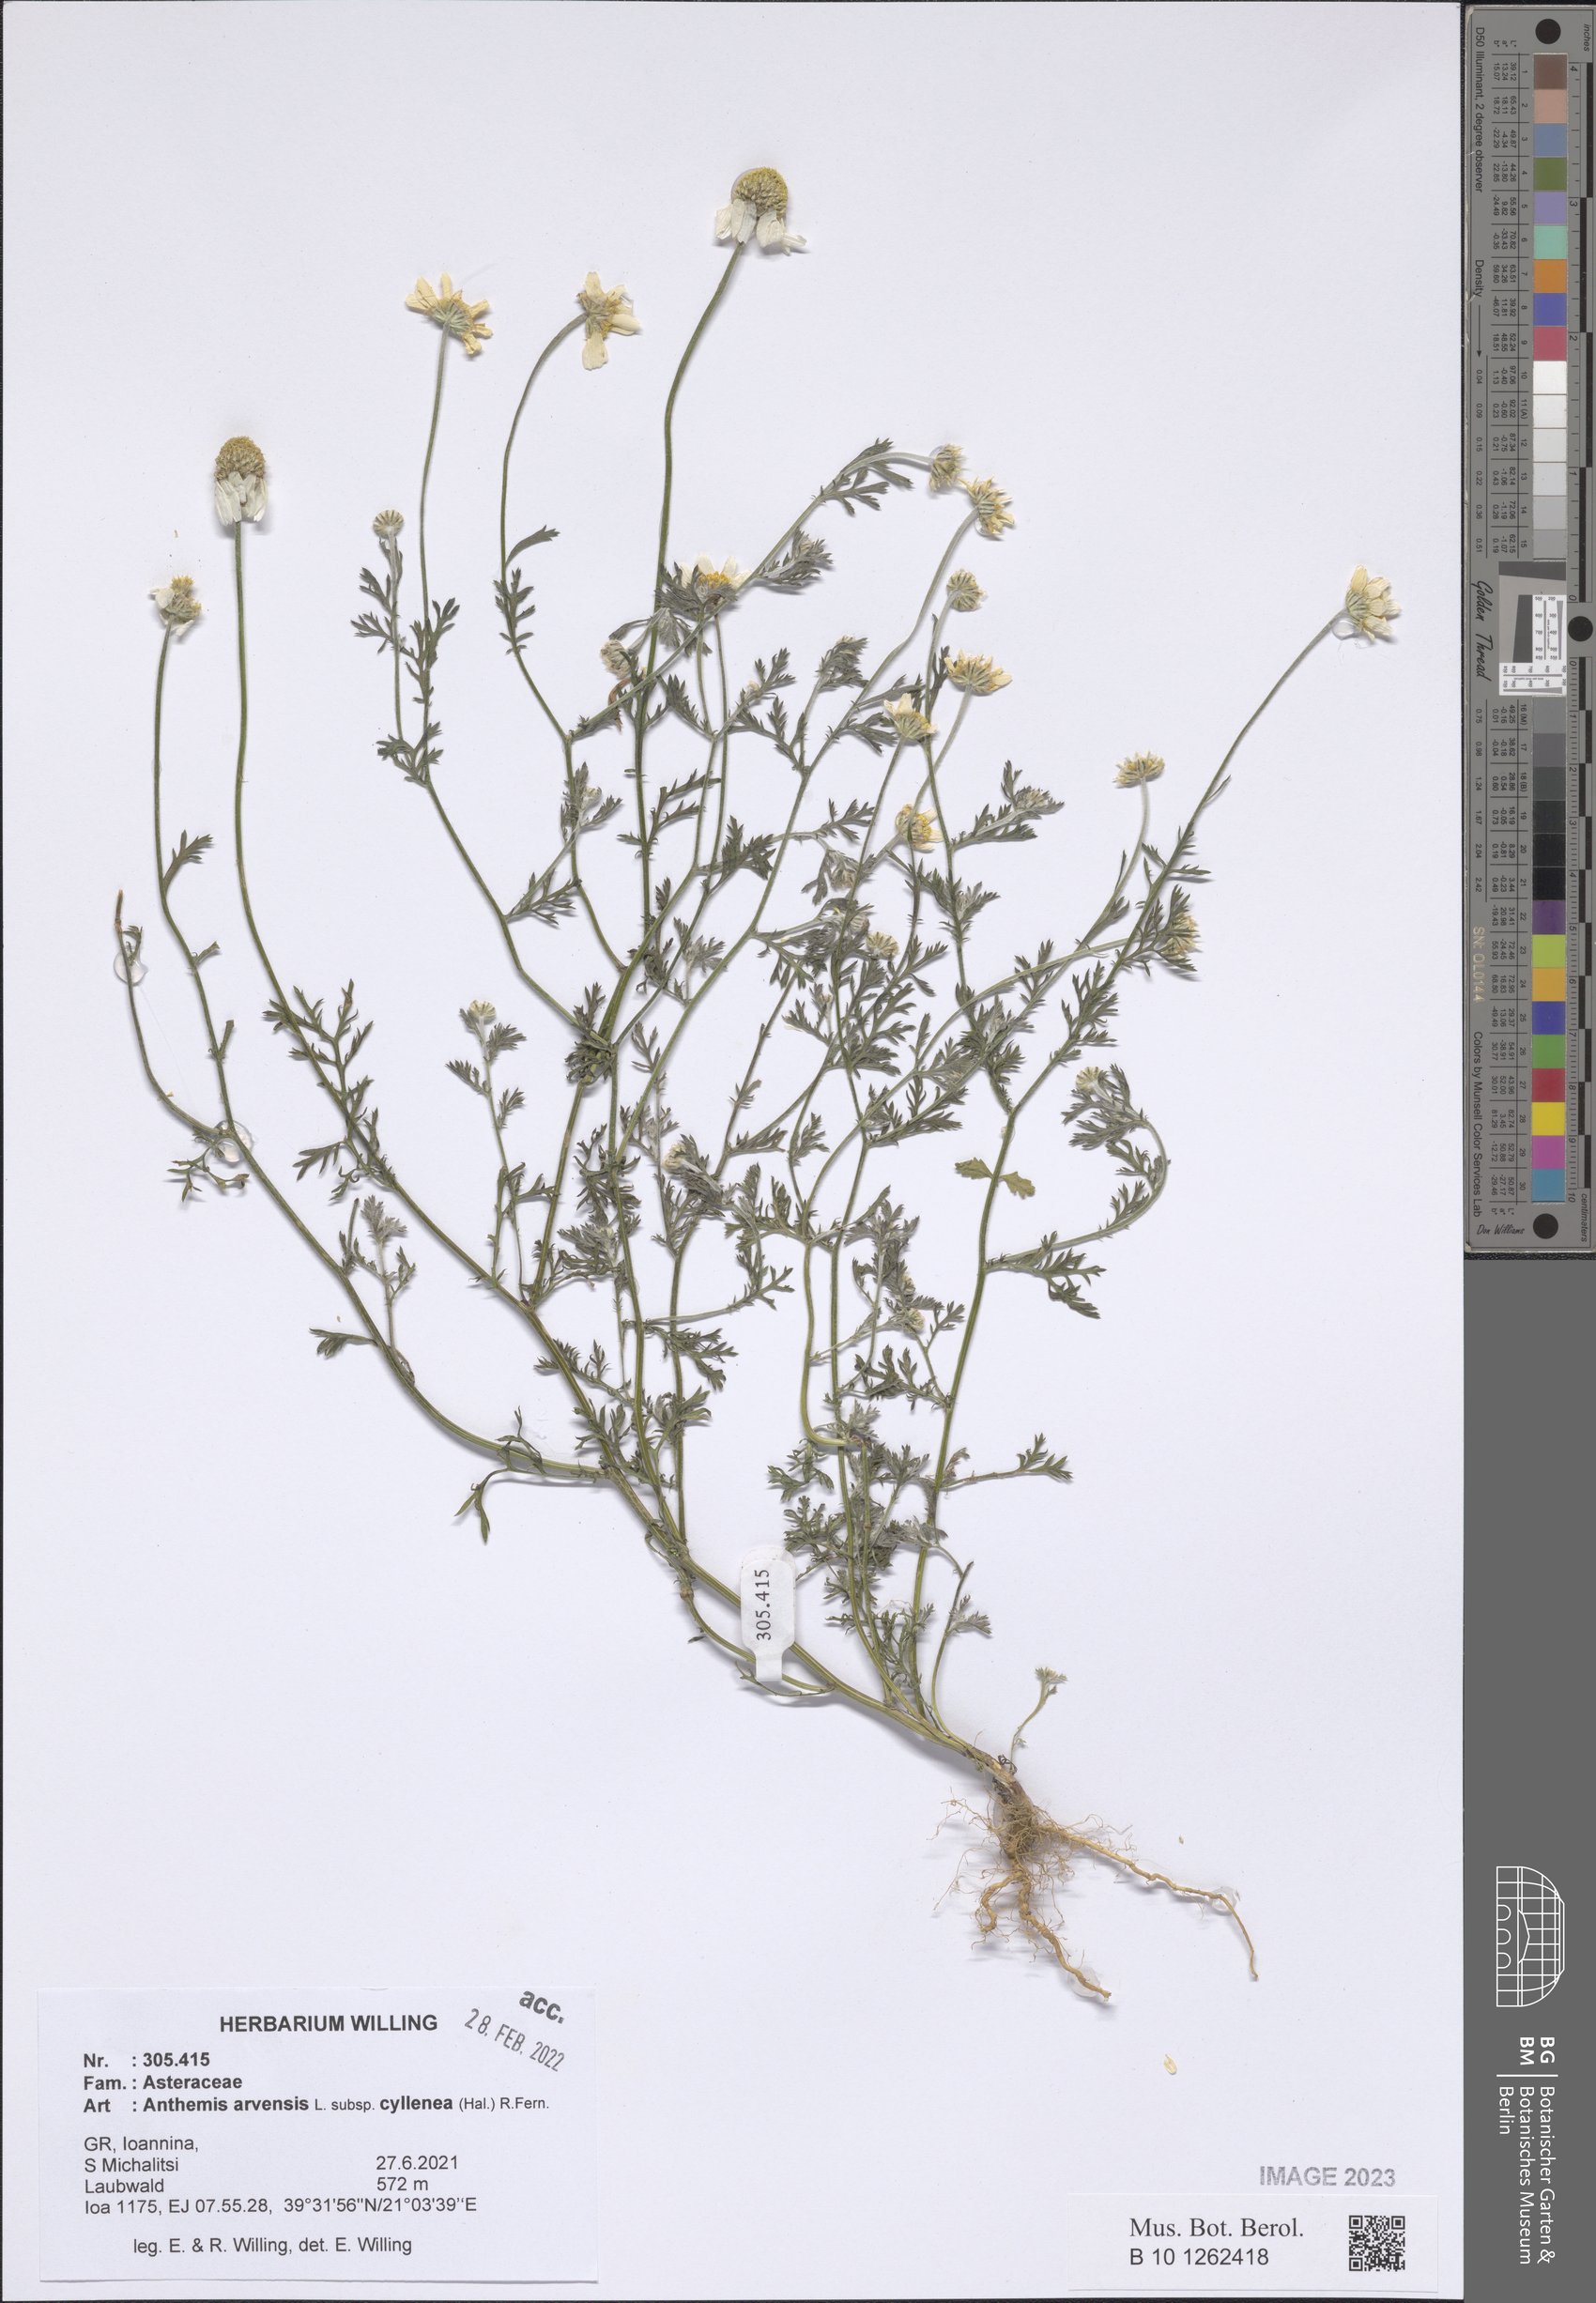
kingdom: Plantae
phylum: Tracheophyta
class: Magnoliopsida
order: Asterales
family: Asteraceae
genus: Anthemis
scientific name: Anthemis arvensis
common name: Corn chamomile
